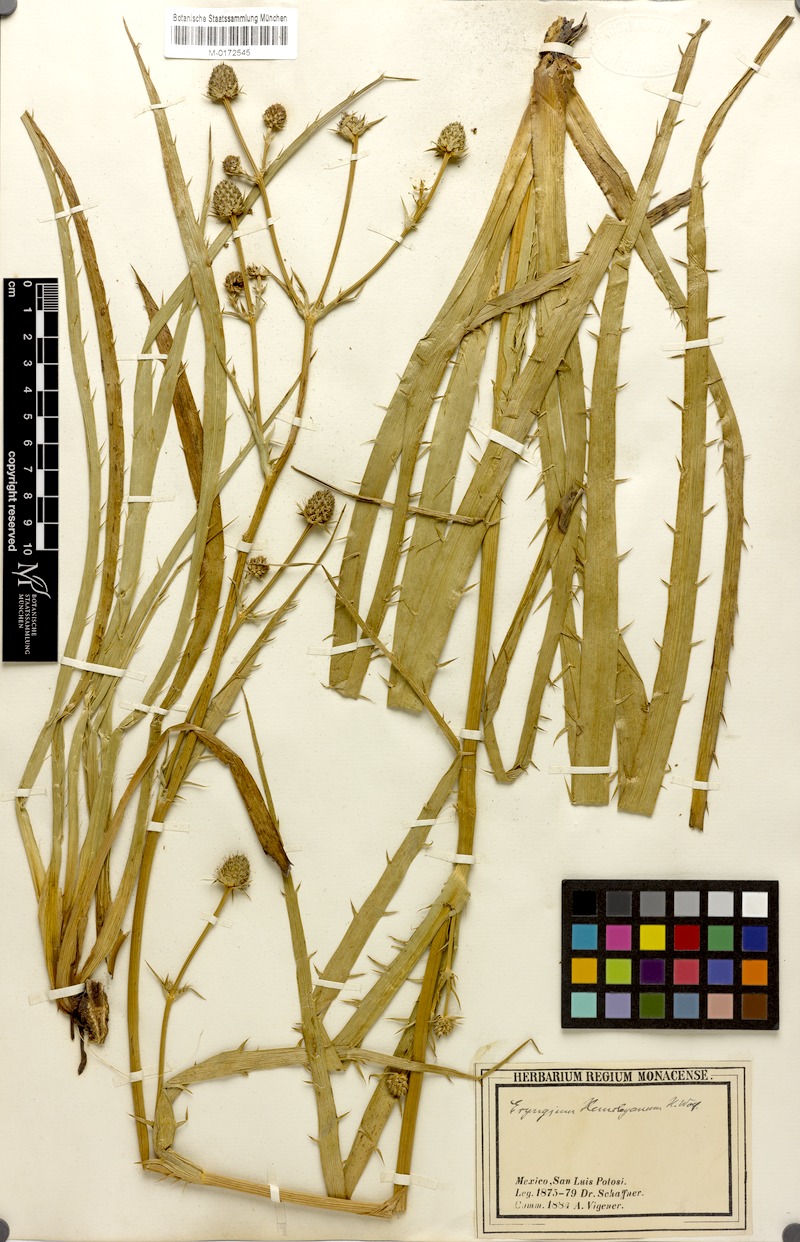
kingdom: Plantae
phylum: Tracheophyta
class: Magnoliopsida
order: Apiales
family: Apiaceae
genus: Eryngium
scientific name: Eryngium hemsleyanum
